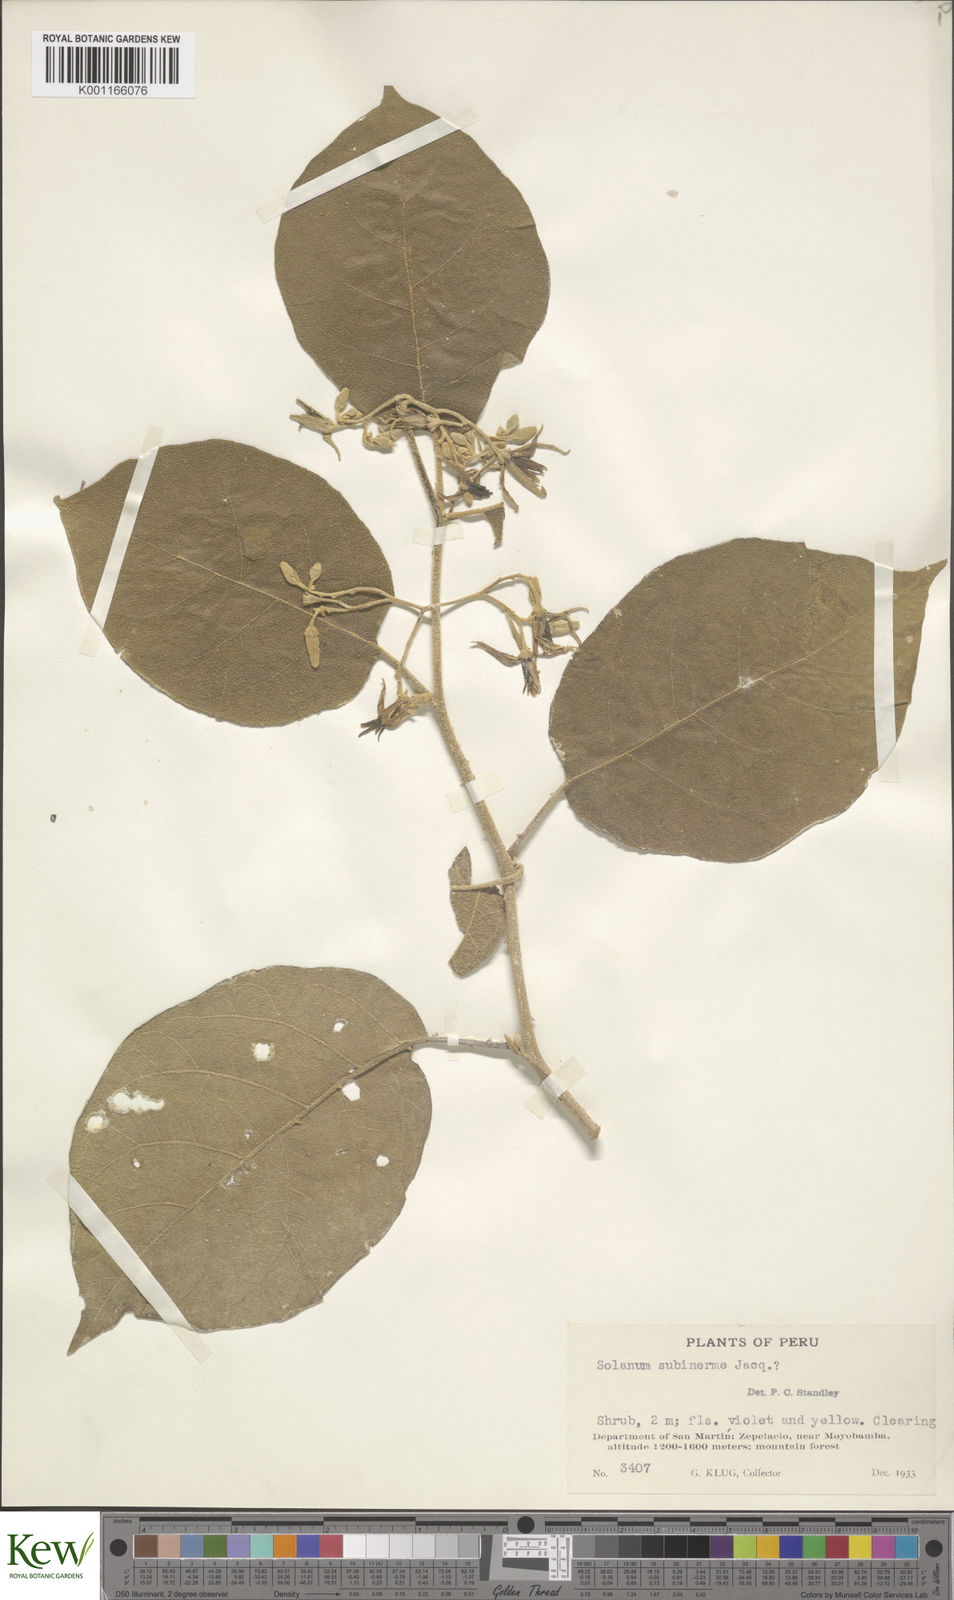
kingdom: Plantae
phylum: Tracheophyta
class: Magnoliopsida
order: Solanales
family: Solanaceae
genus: Solanum
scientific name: Solanum subinerme
